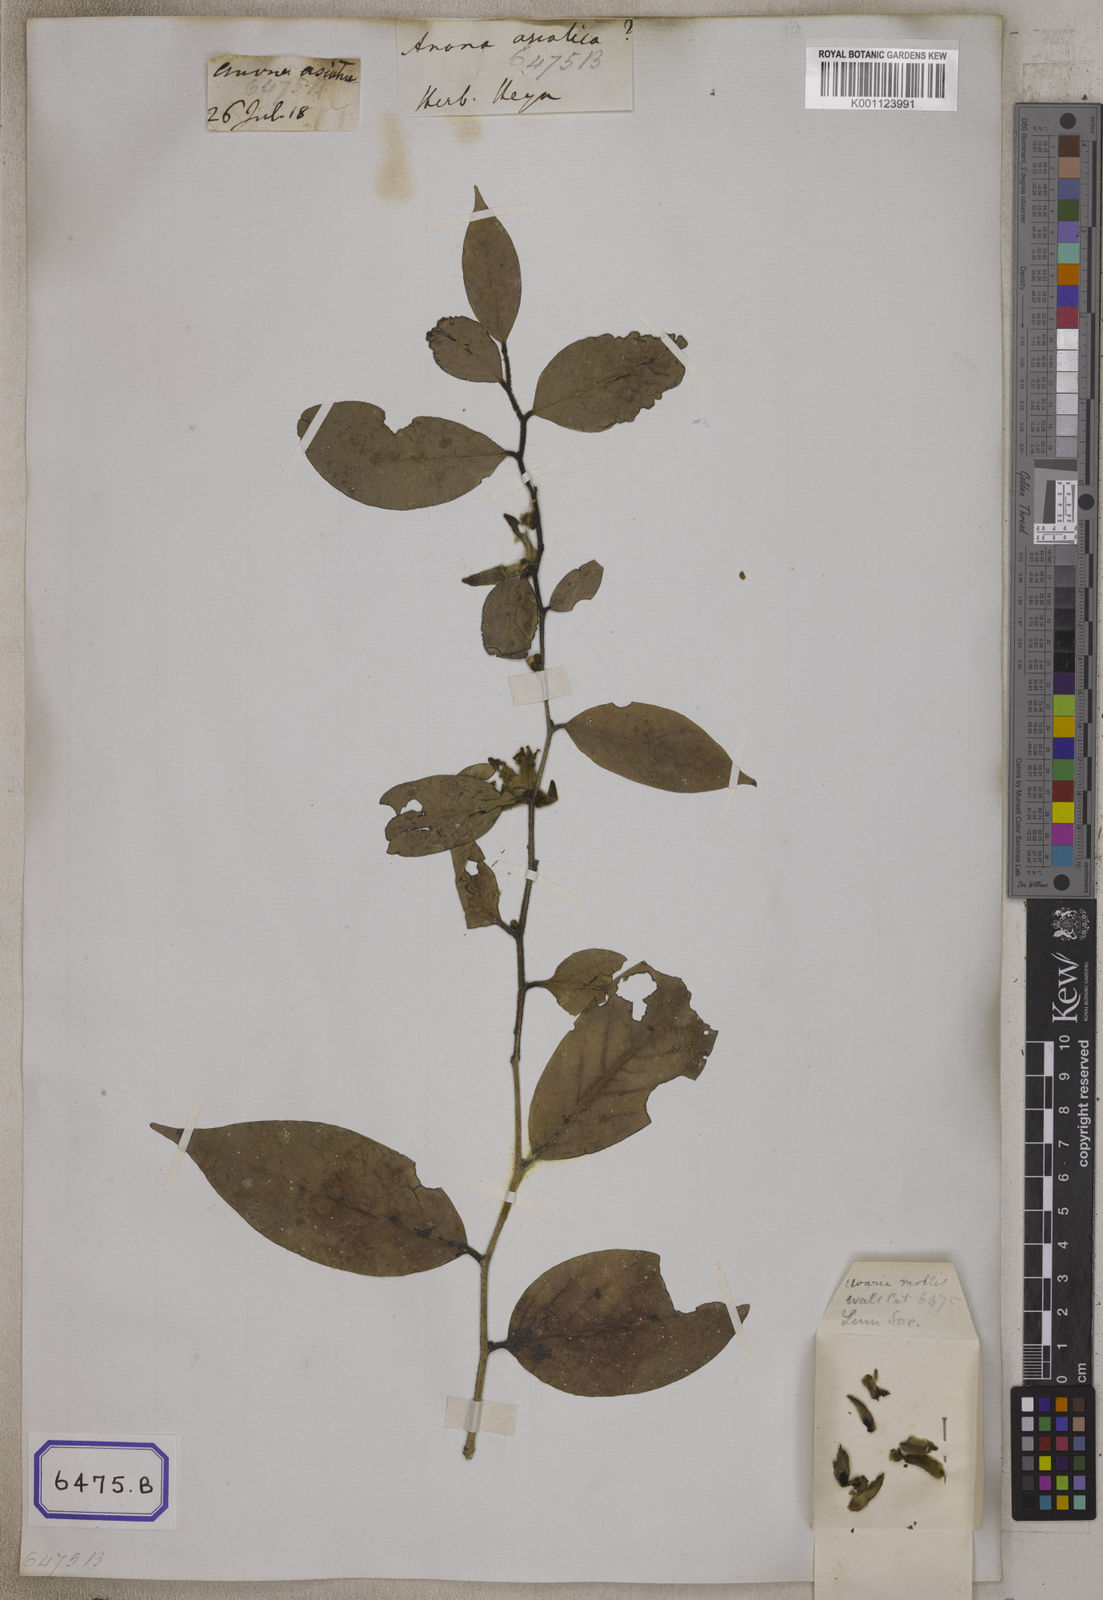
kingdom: Plantae
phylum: Tracheophyta
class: Magnoliopsida
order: Magnoliales
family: Annonaceae
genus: Meiogyne
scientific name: Meiogyne pannosa
